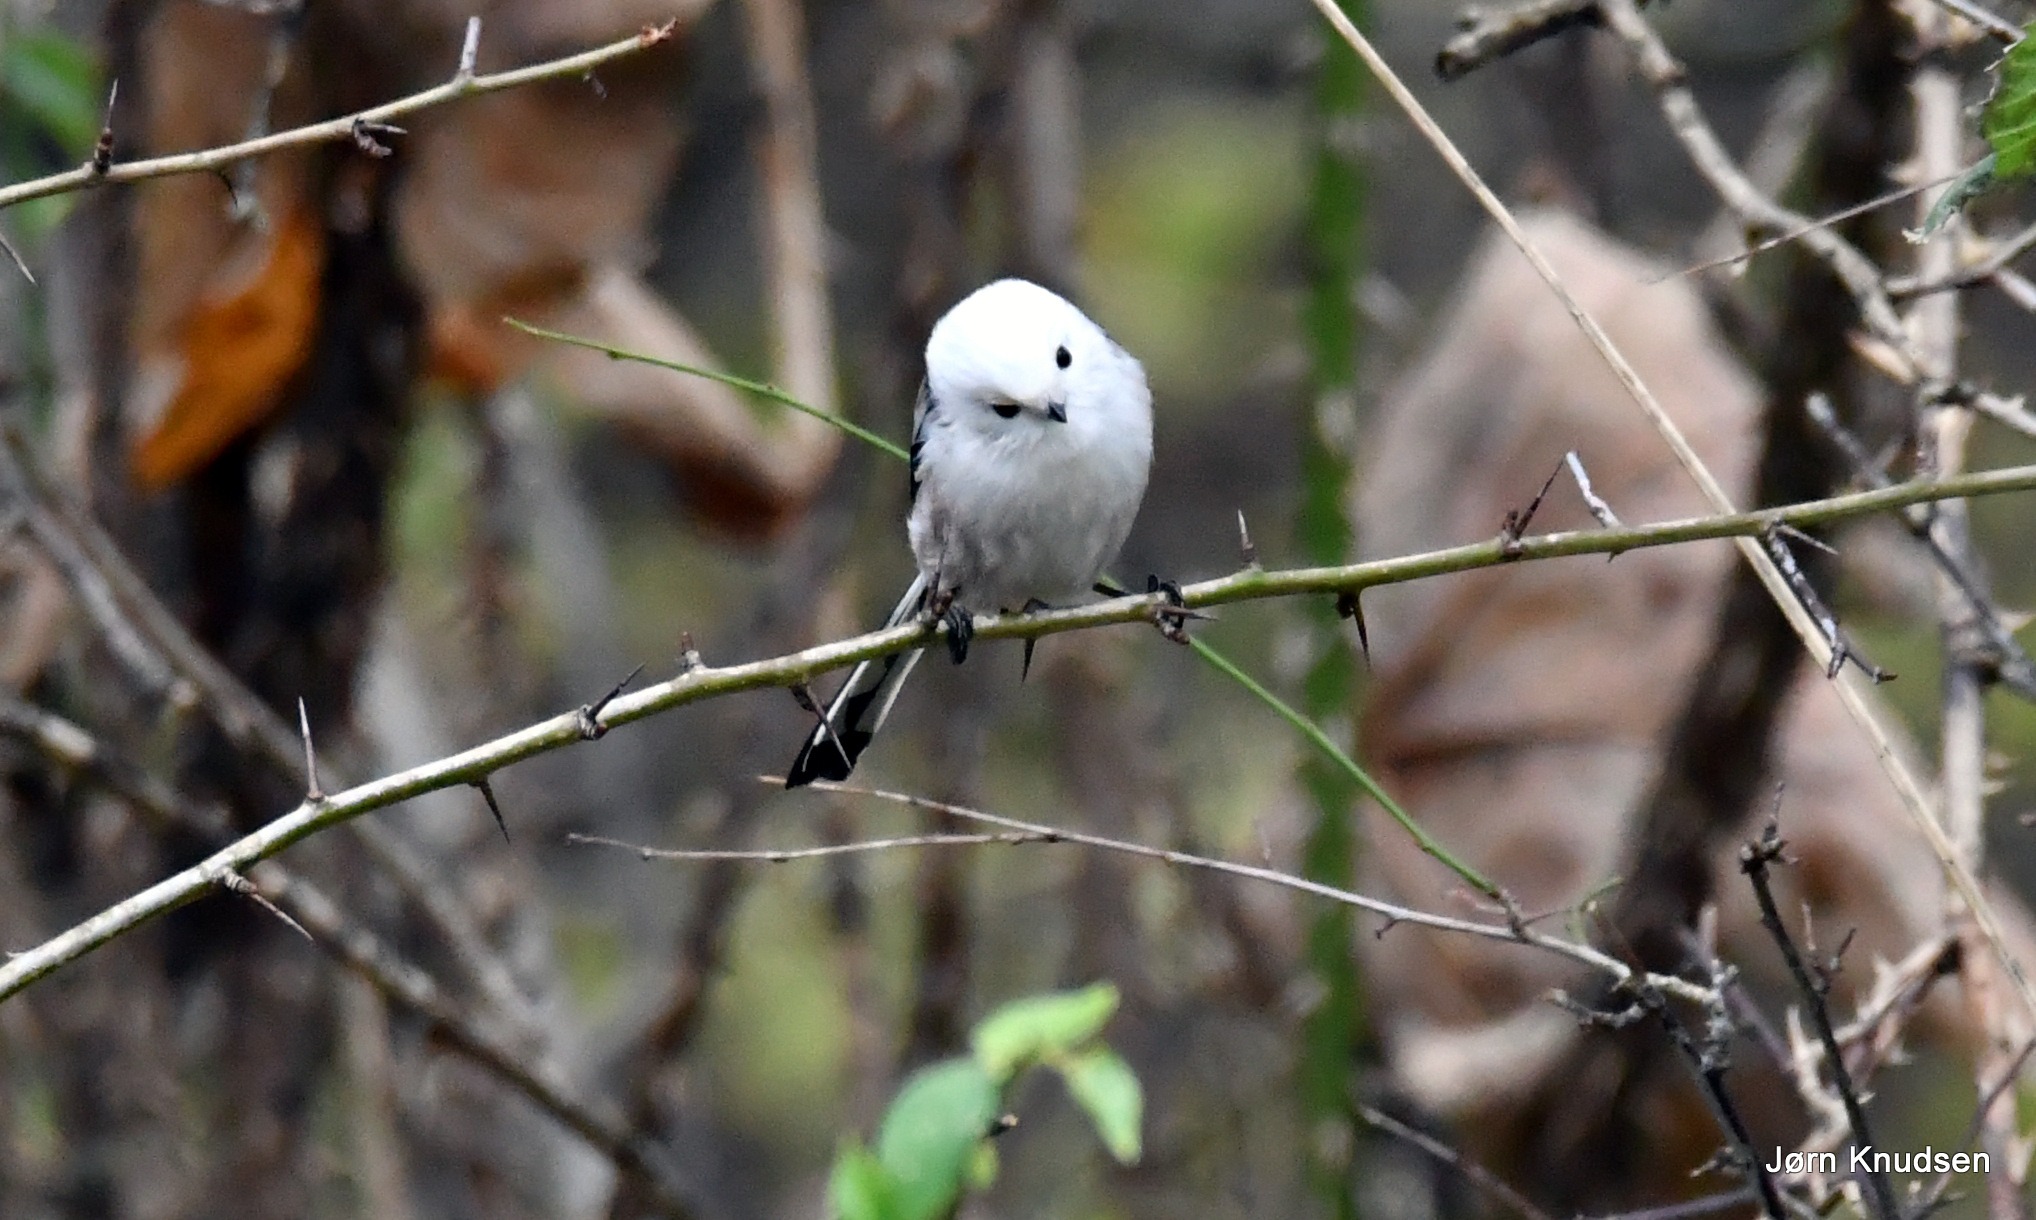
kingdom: Animalia
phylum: Chordata
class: Aves
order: Passeriformes
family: Aegithalidae
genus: Aegithalos
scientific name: Aegithalos caudatus
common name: Nordlig halemejse
